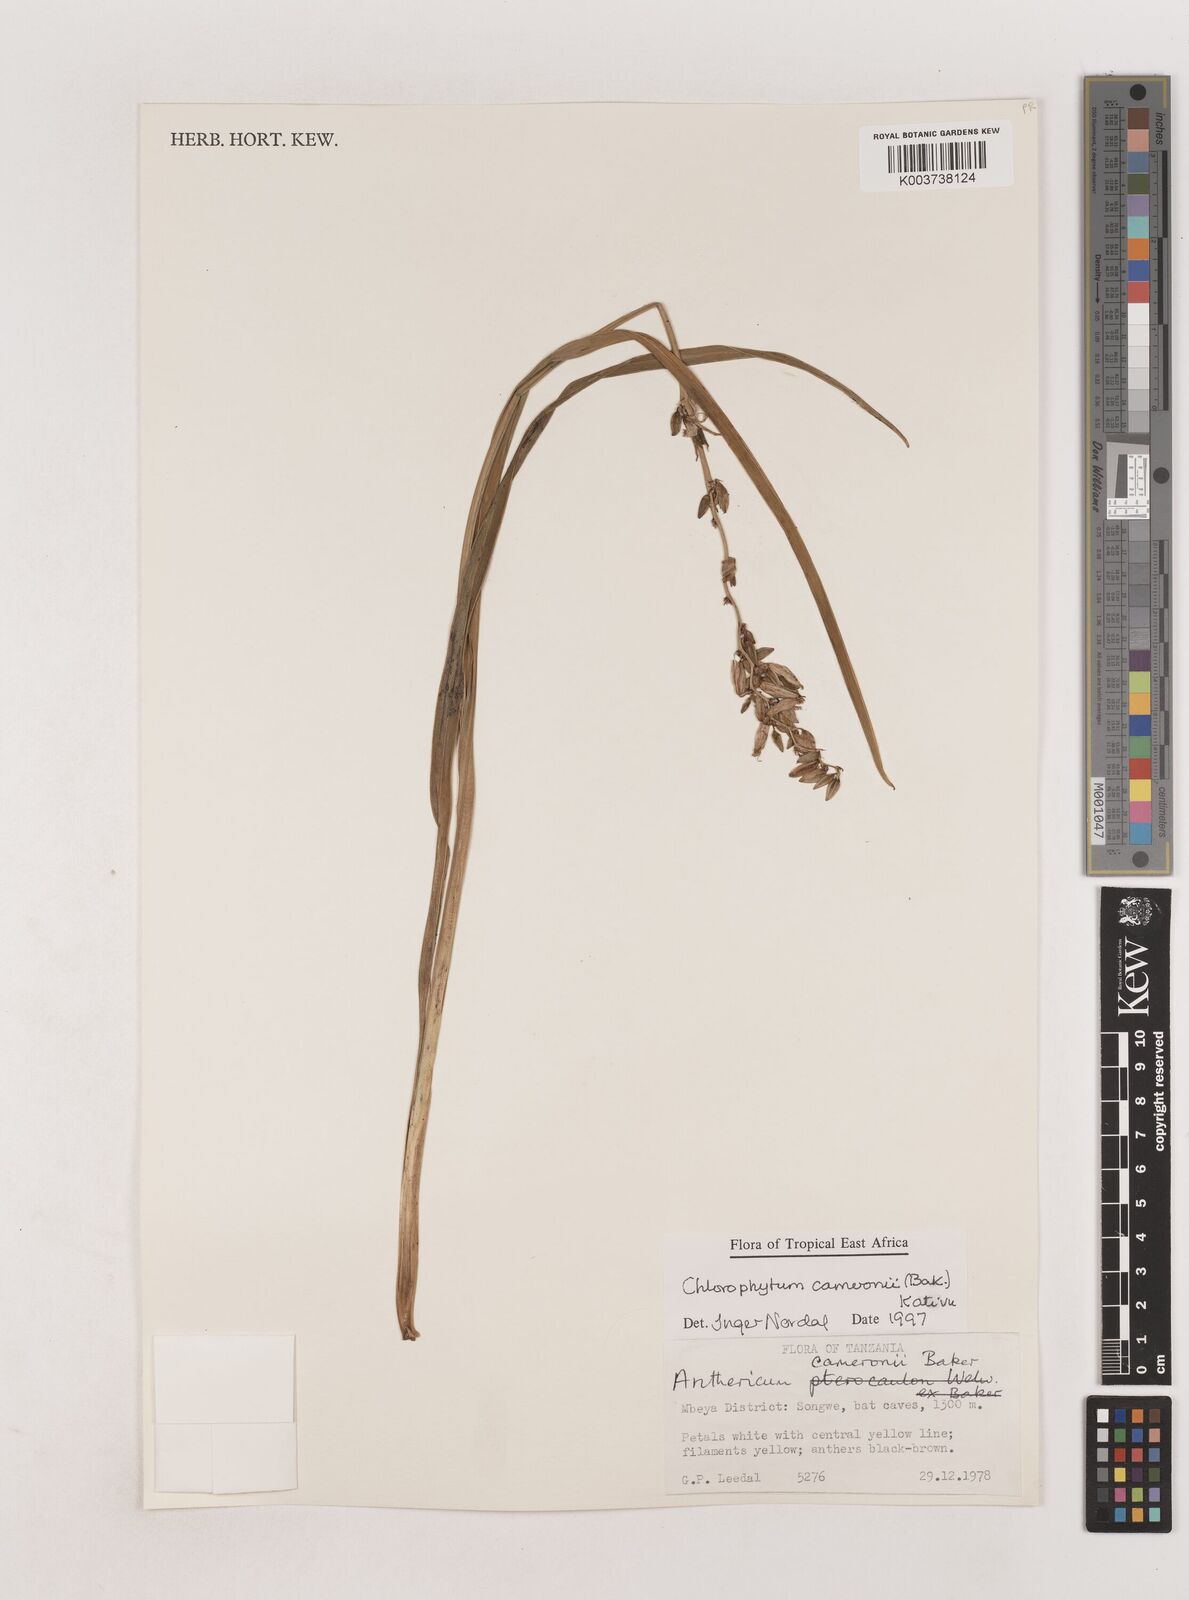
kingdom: Plantae
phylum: Tracheophyta
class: Liliopsida
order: Asparagales
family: Asparagaceae
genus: Chlorophytum
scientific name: Chlorophytum cameronii
